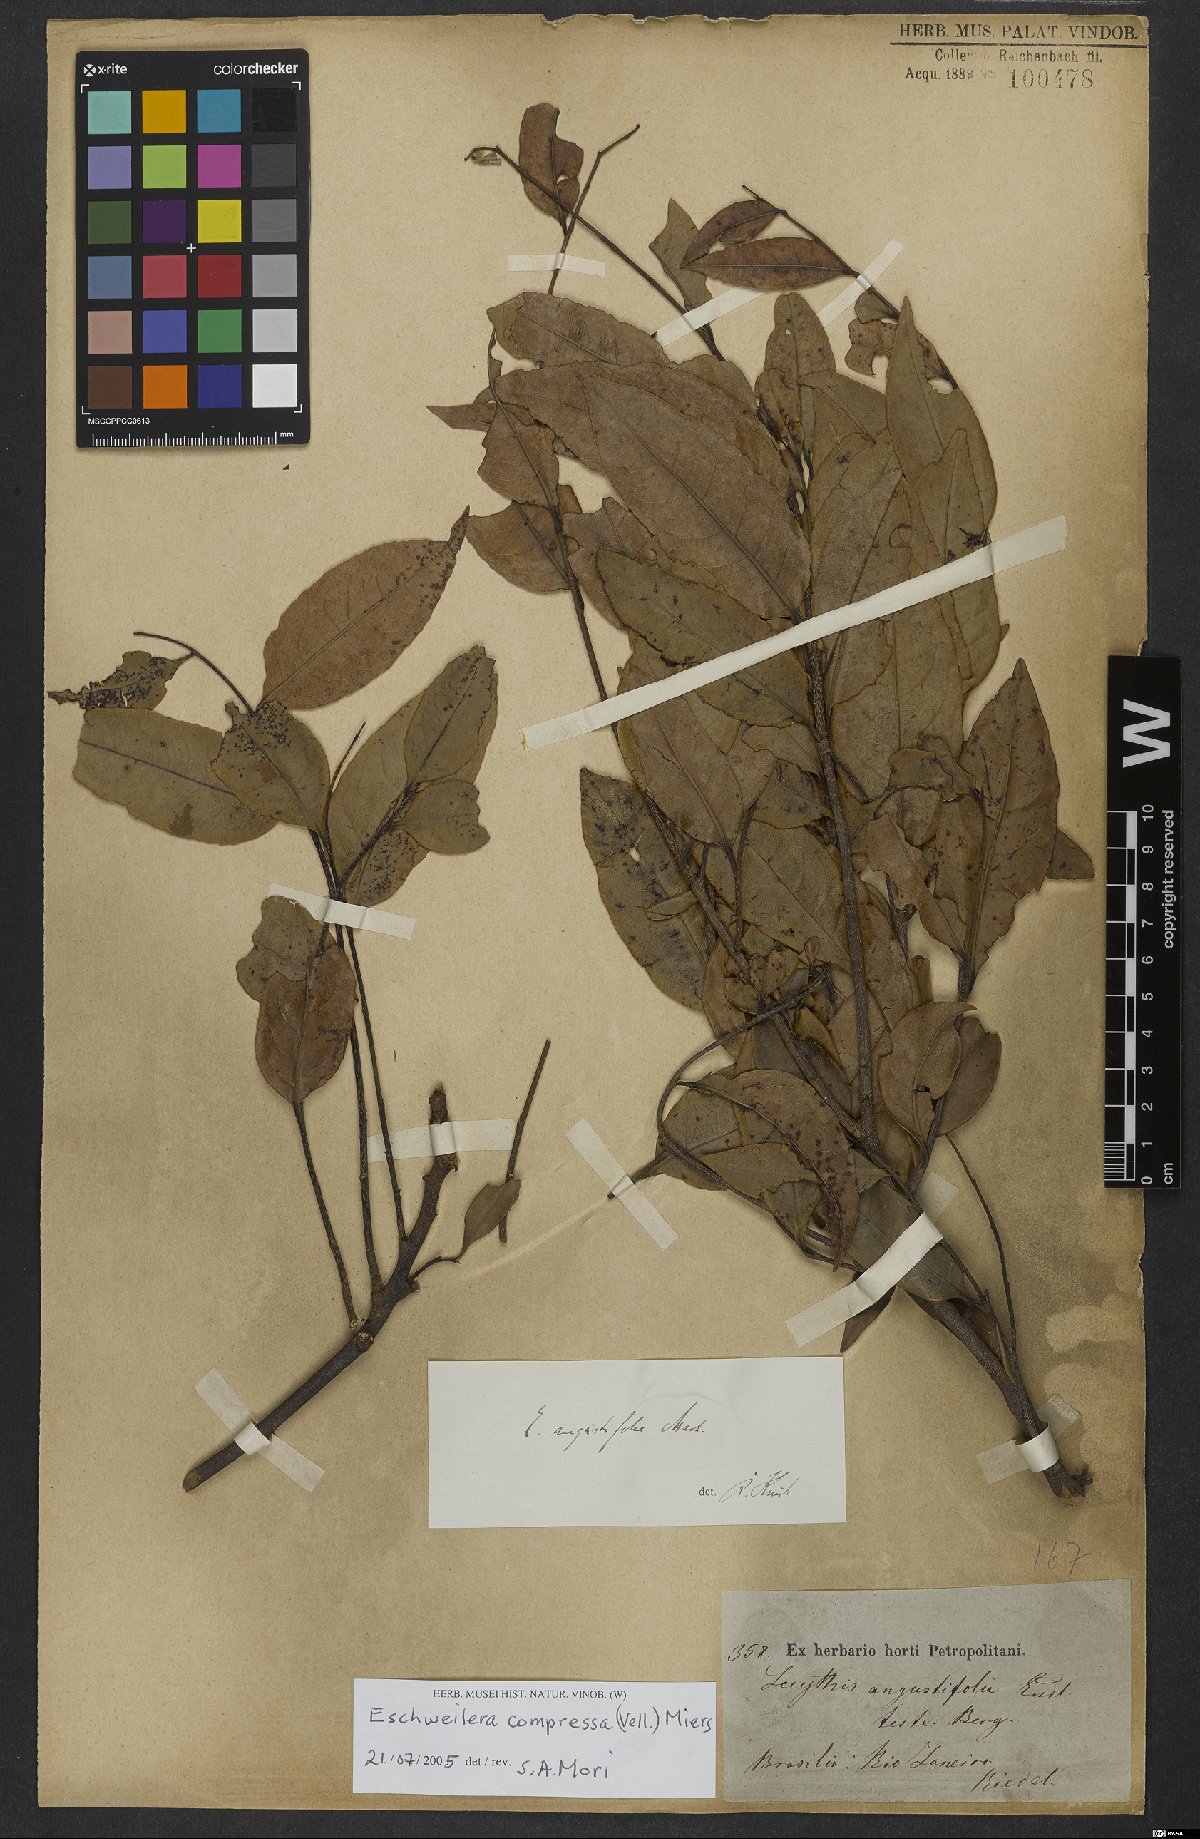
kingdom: Plantae
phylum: Tracheophyta
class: Magnoliopsida
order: Ericales
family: Lecythidaceae
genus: Eschweilera
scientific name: Eschweilera compressa
